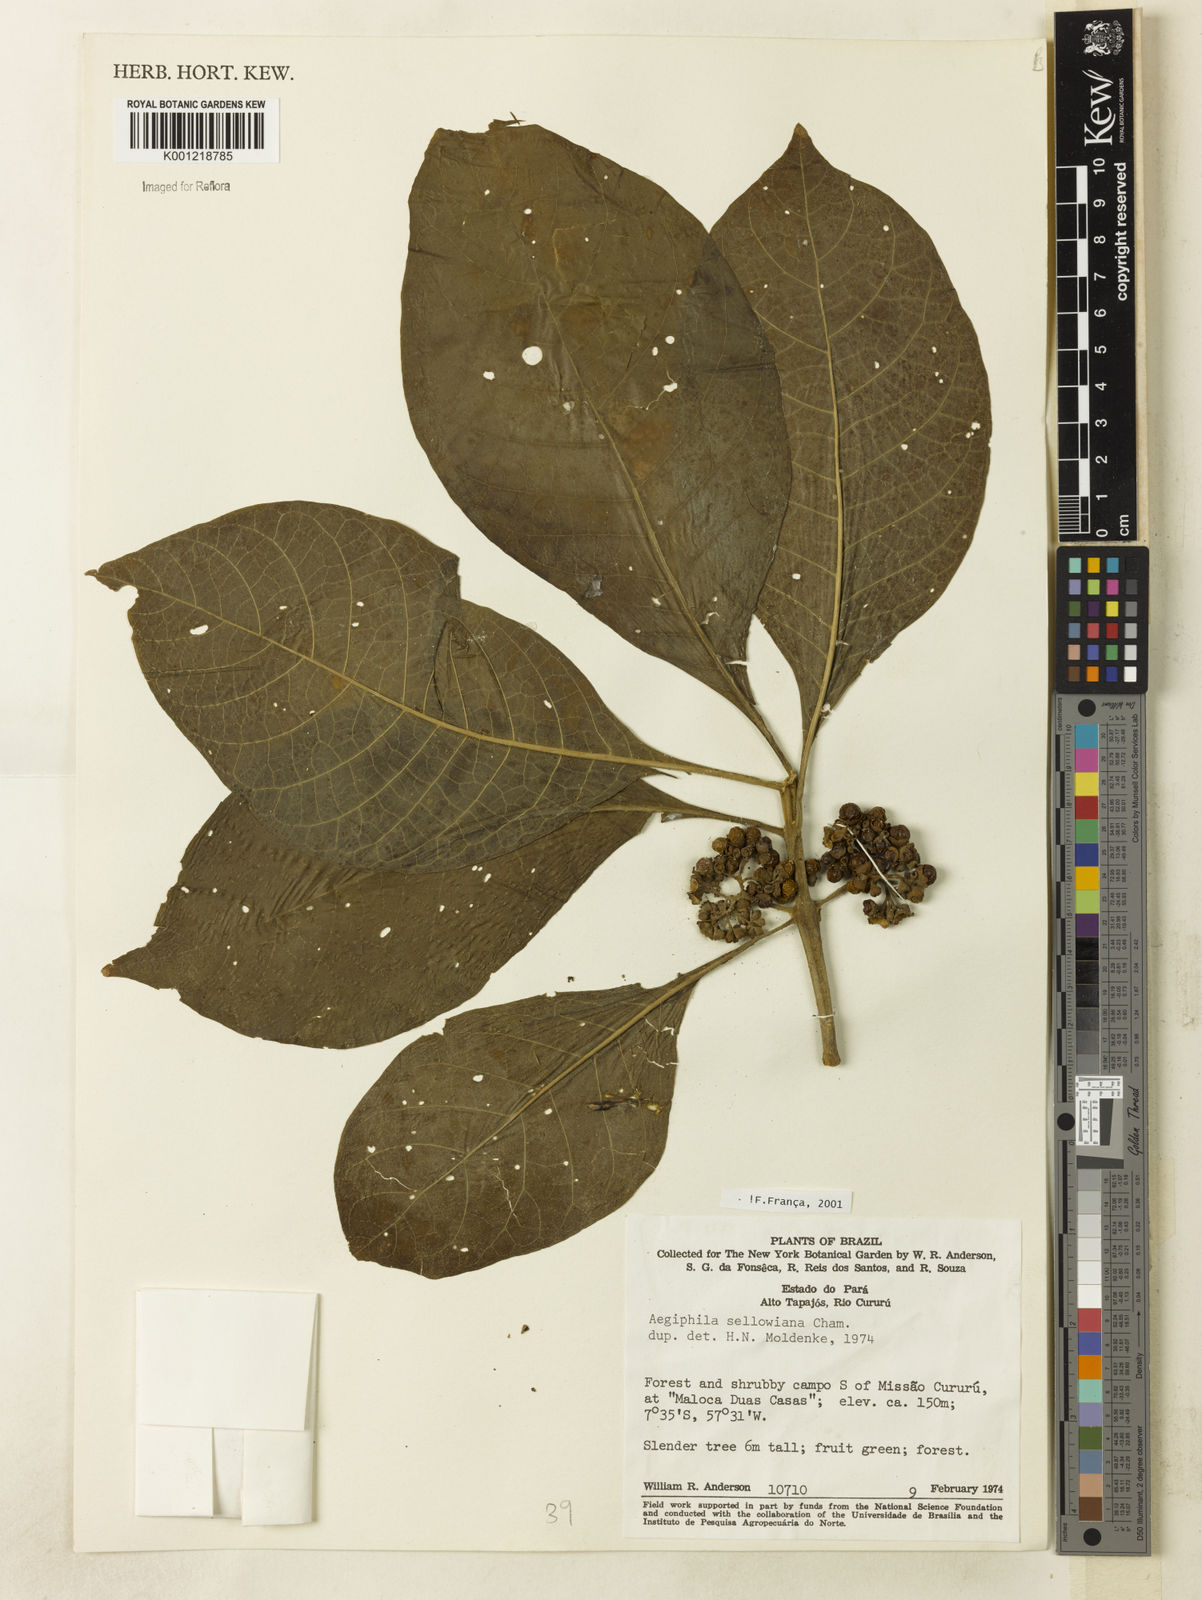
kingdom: Plantae
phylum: Tracheophyta
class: Magnoliopsida
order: Lamiales
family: Lamiaceae
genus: Aegiphila
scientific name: Aegiphila verticillata
